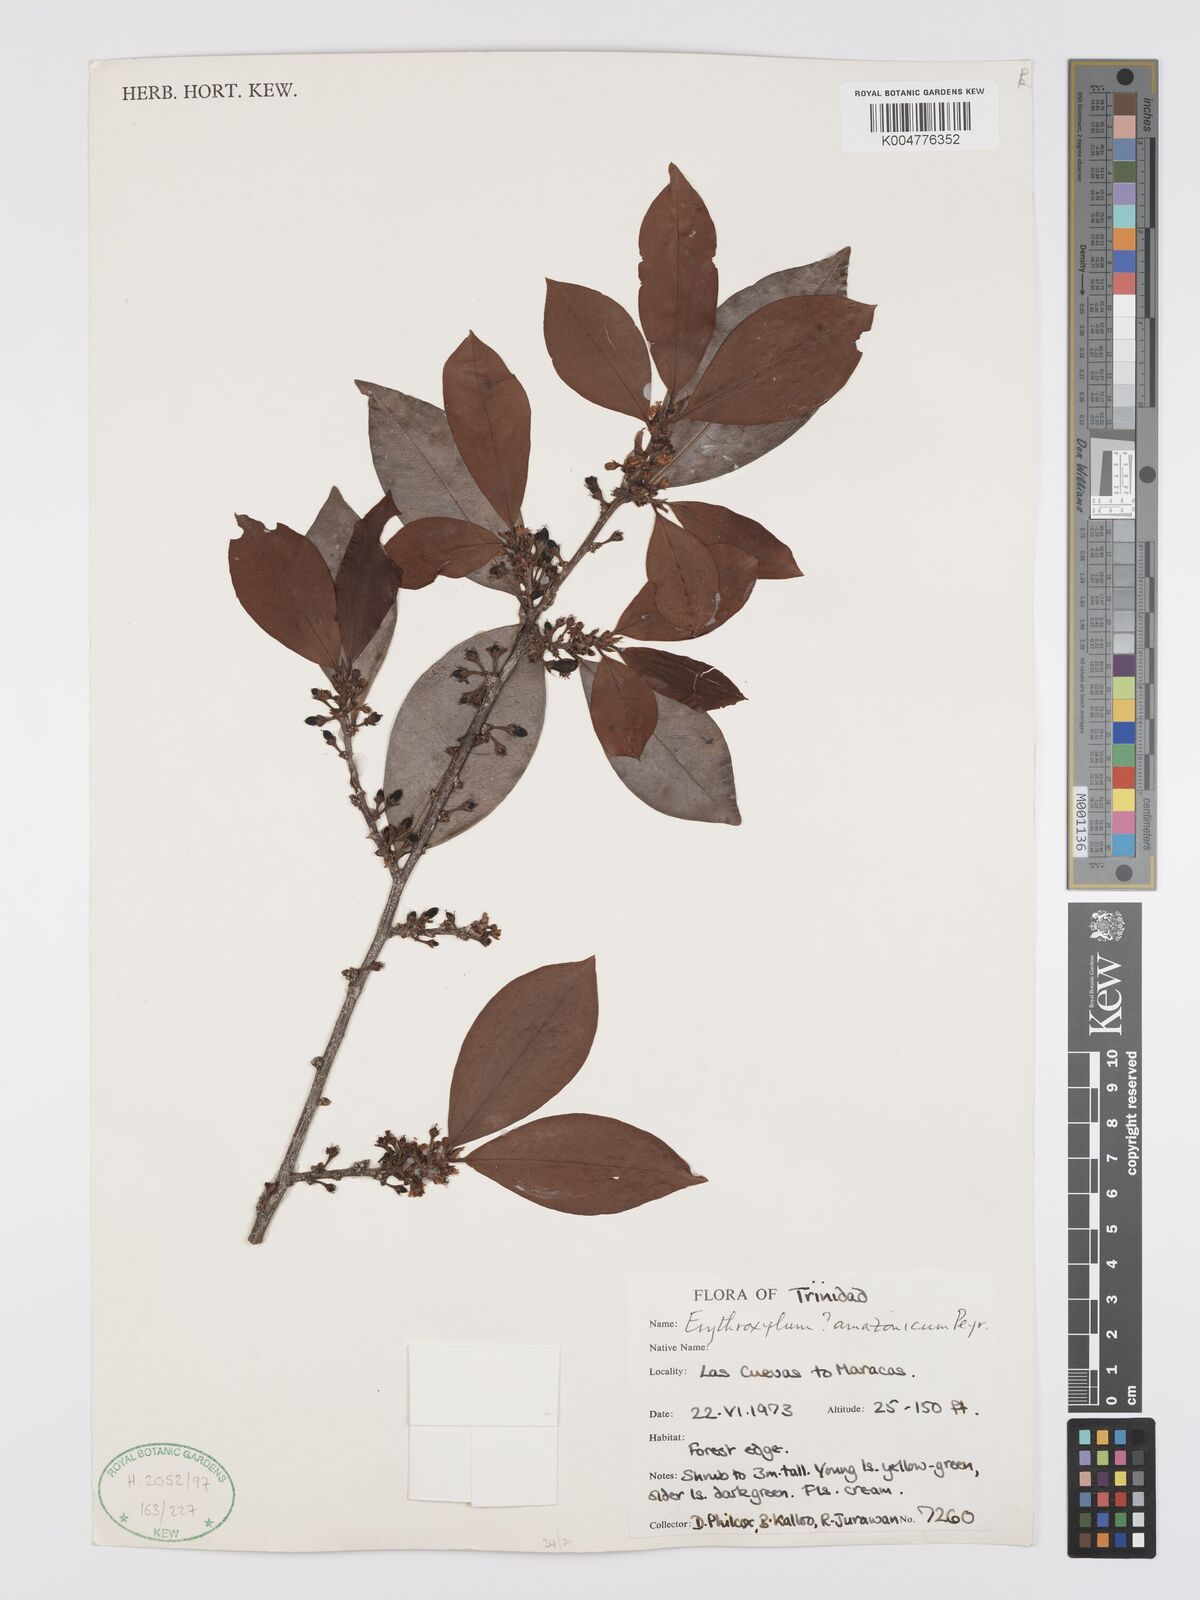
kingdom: Plantae
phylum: Tracheophyta
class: Magnoliopsida
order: Malpighiales
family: Erythroxylaceae
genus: Erythroxylum
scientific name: Erythroxylum amazonicum
